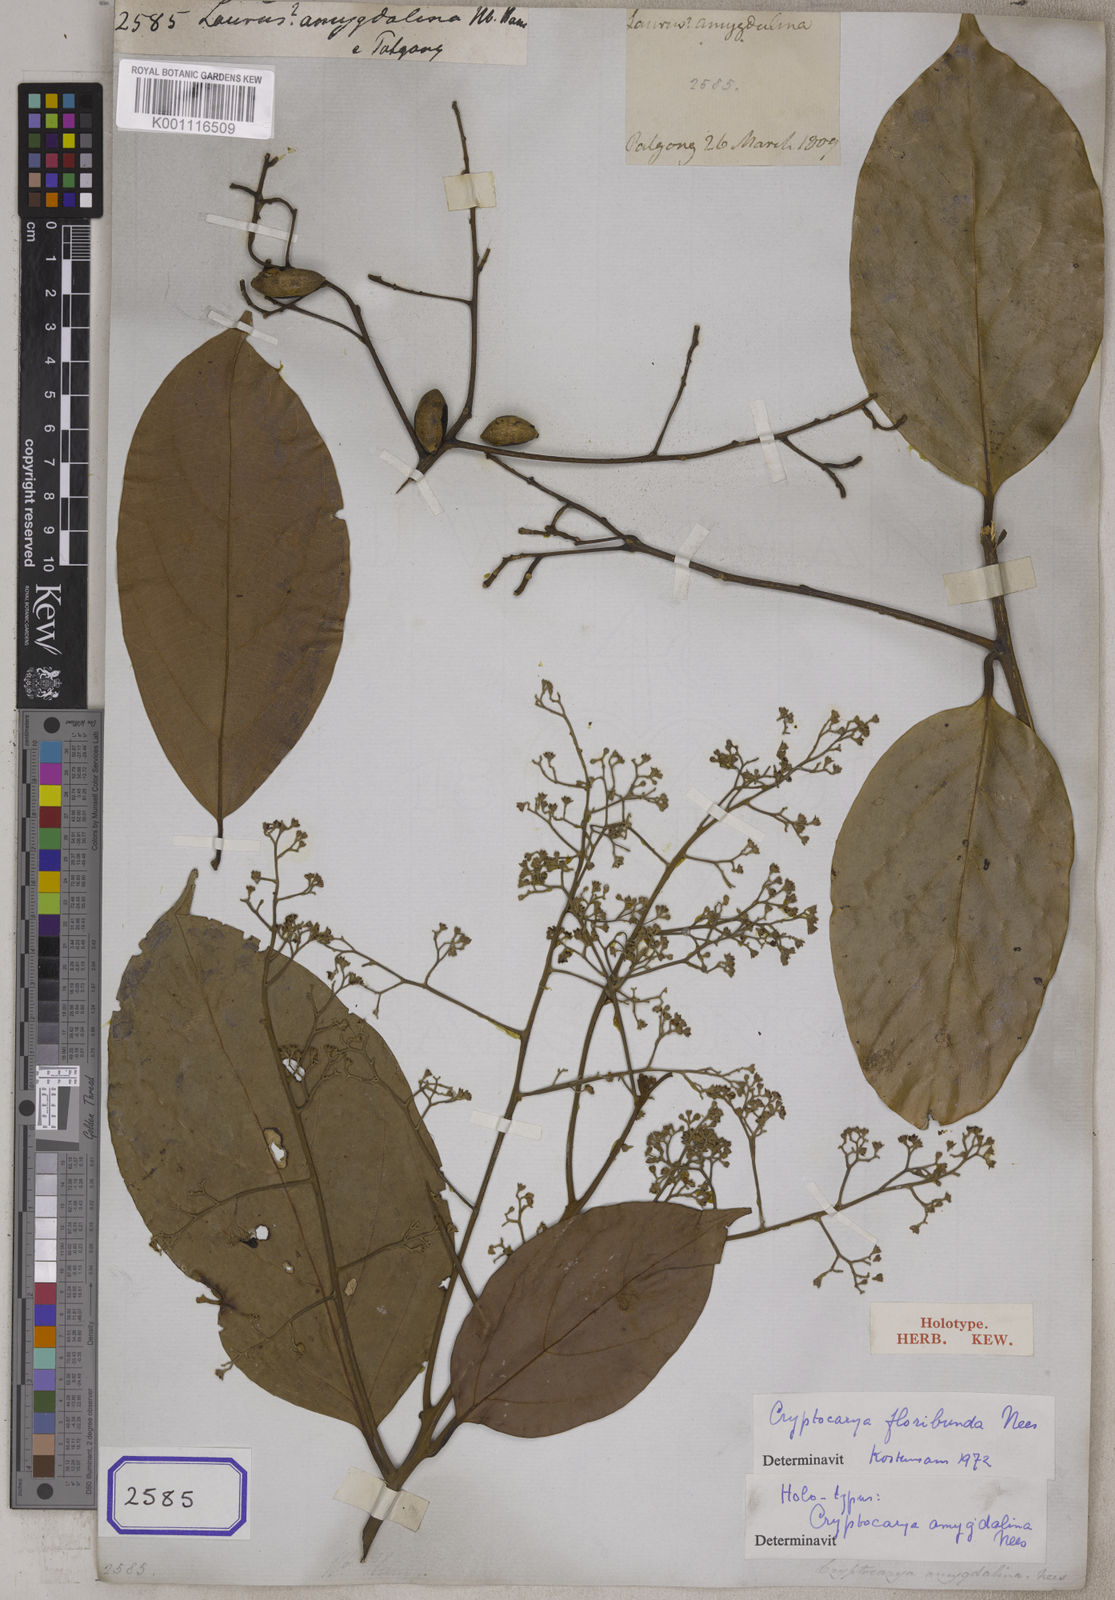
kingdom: Plantae
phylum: Tracheophyta
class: Magnoliopsida
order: Laurales
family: Lauraceae
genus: Cryptocarya
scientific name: Cryptocarya amygdalina
